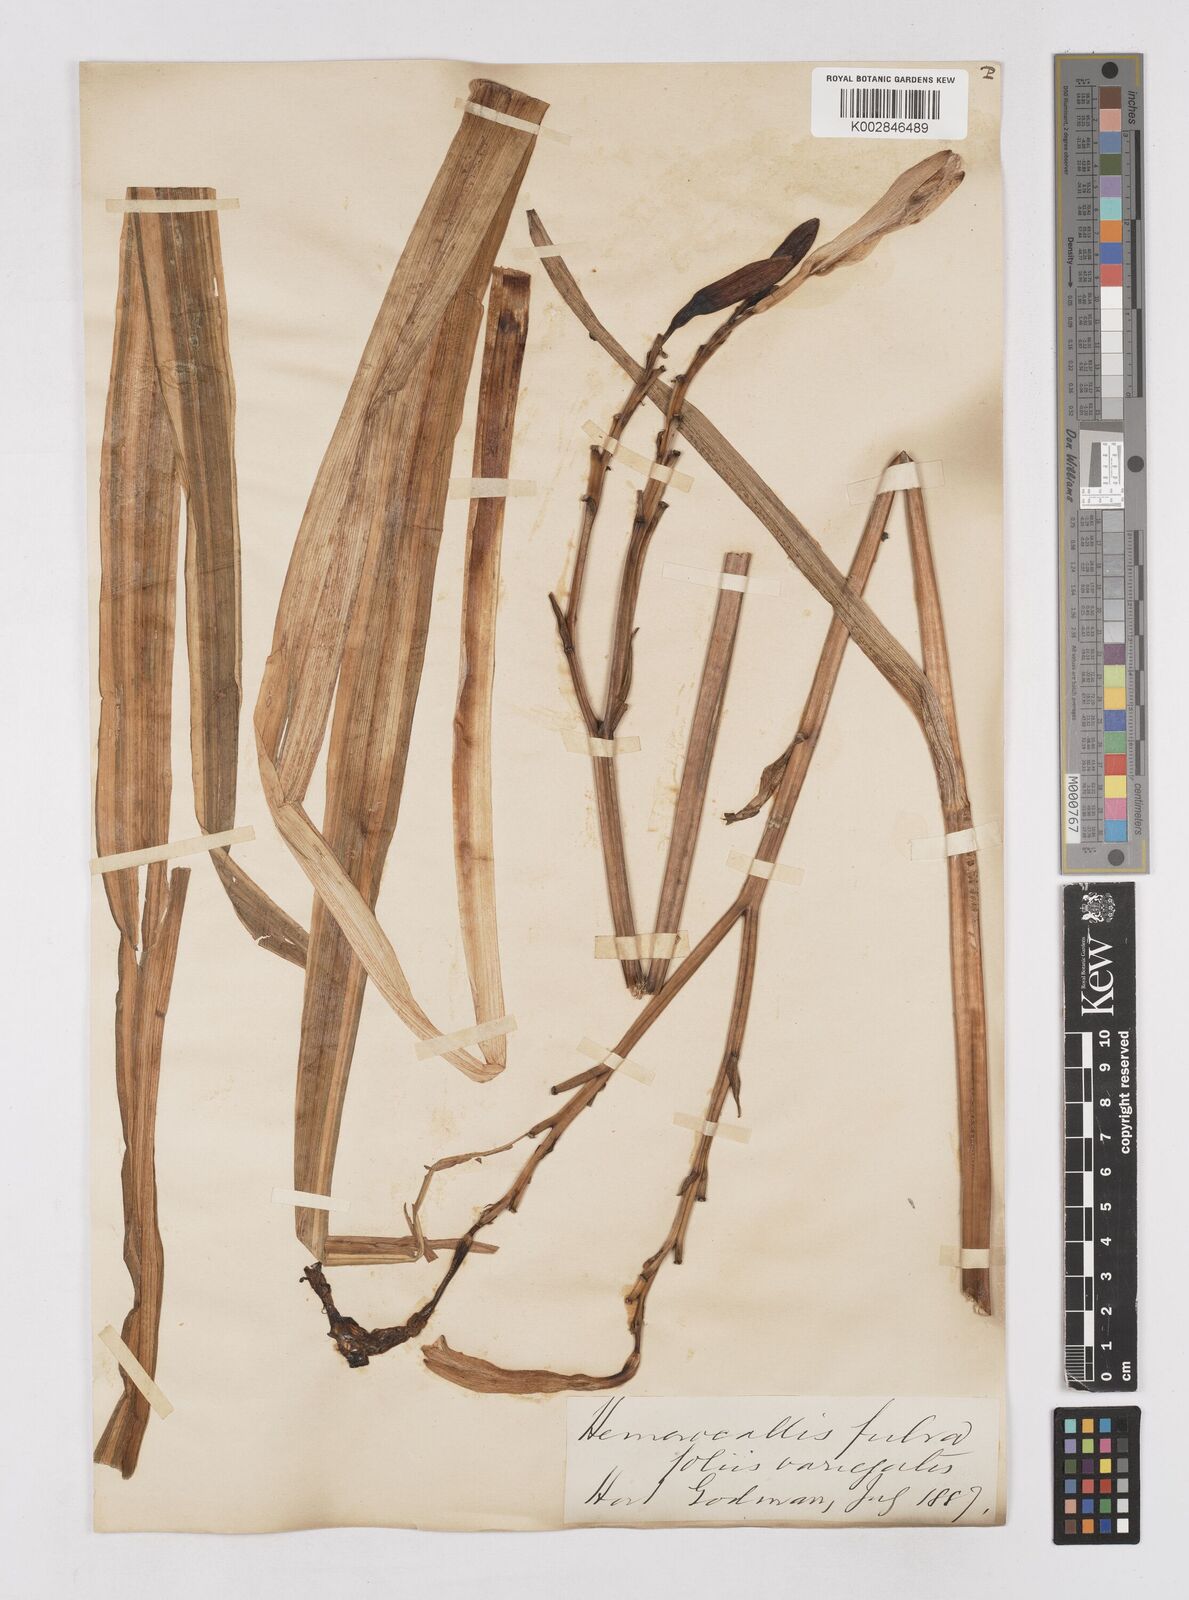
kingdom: Plantae
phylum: Tracheophyta
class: Liliopsida
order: Asparagales
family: Asphodelaceae
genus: Hemerocallis
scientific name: Hemerocallis lilioasphodelus
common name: Yellow day-lily
